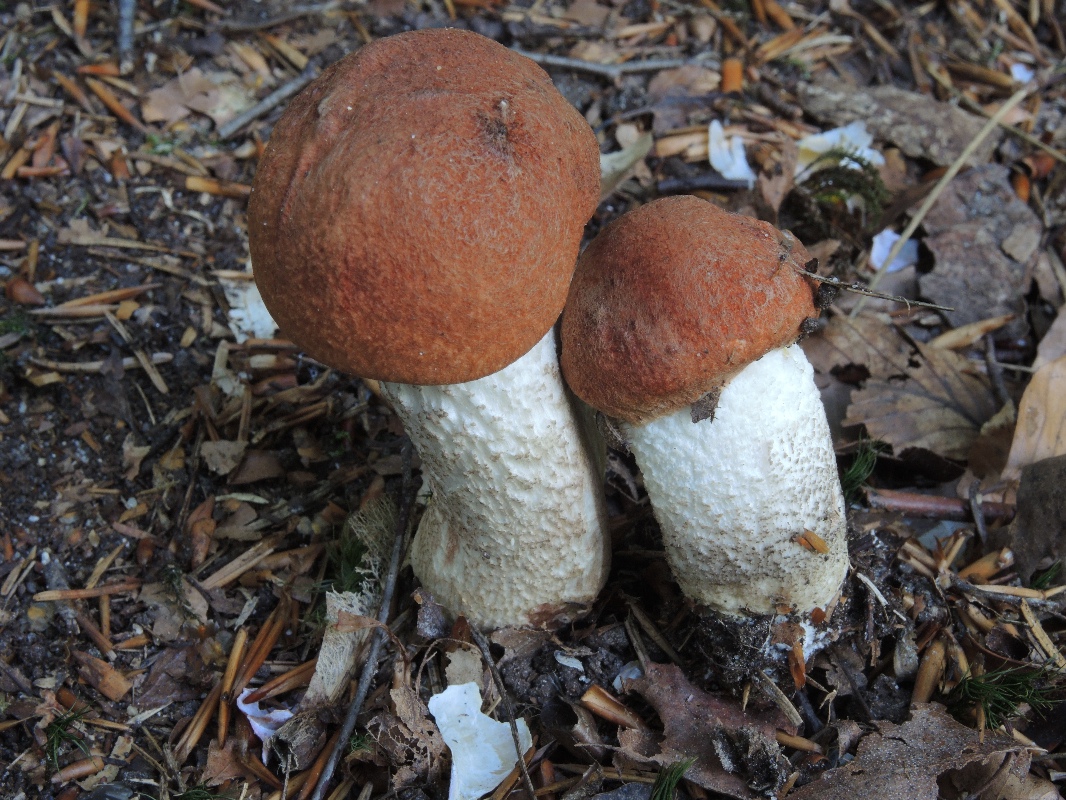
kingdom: Fungi
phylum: Basidiomycota
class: Agaricomycetes
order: Boletales
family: Boletaceae
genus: Leccinum
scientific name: Leccinum aurantiacum
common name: rustrød skælrørhat
